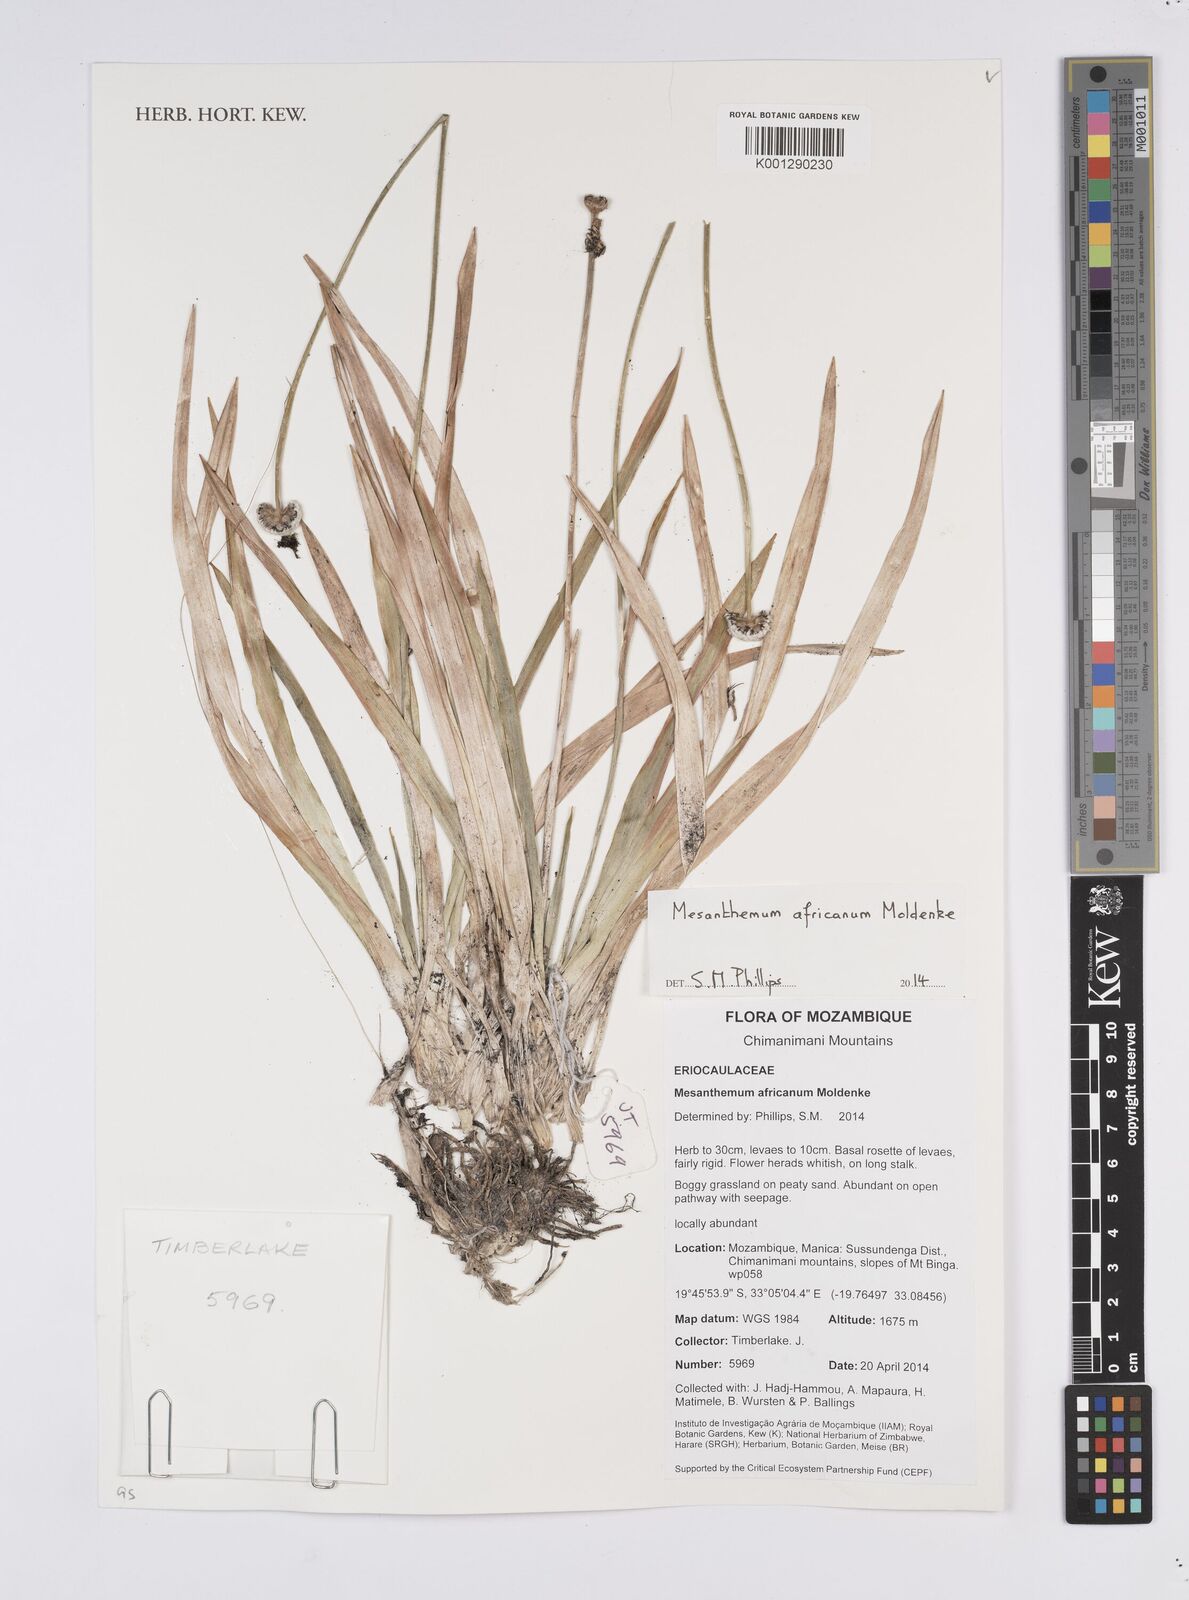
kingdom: Plantae
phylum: Tracheophyta
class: Liliopsida
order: Poales
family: Eriocaulaceae
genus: Mesanthemum
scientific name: Mesanthemum africanum
